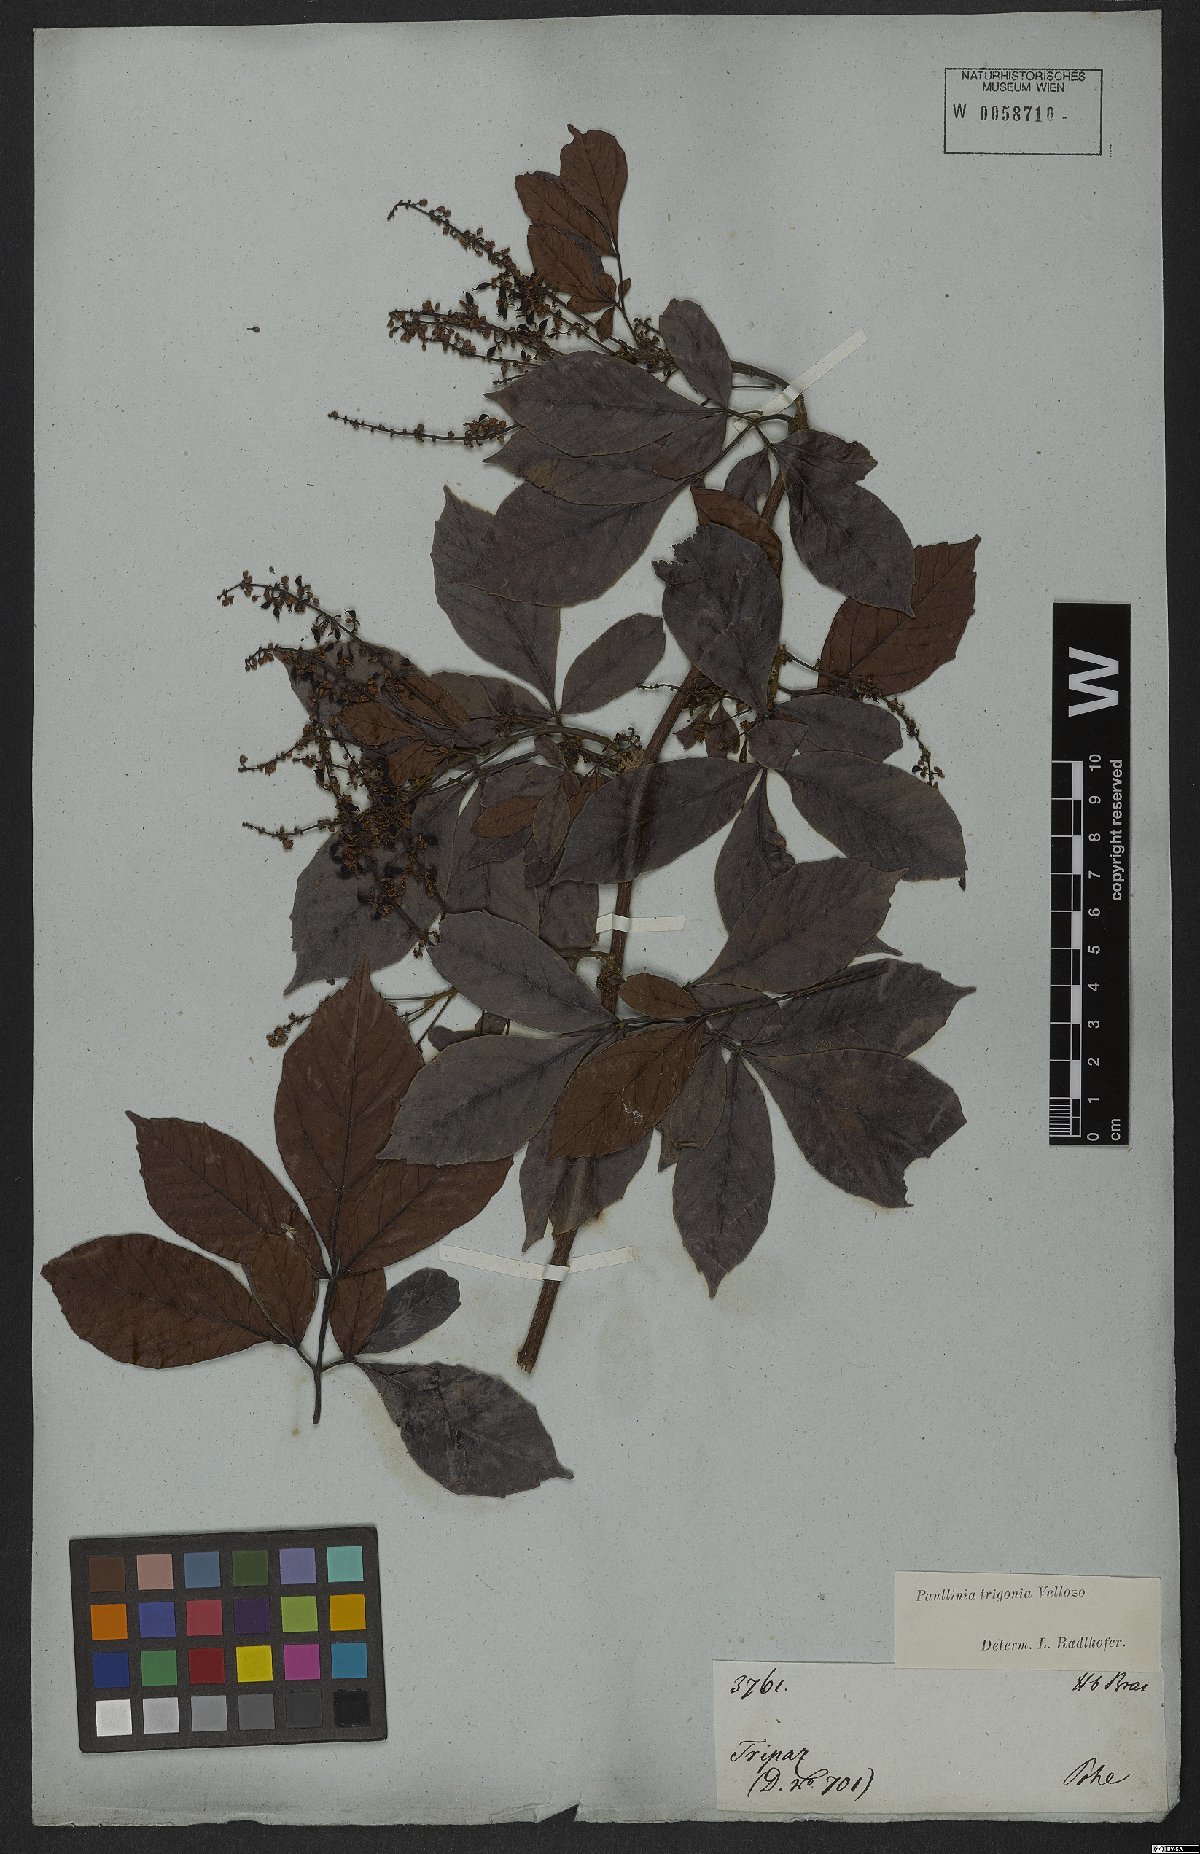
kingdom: Plantae
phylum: Tracheophyta
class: Magnoliopsida
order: Sapindales
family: Sapindaceae
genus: Paullinia
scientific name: Paullinia trigonia
